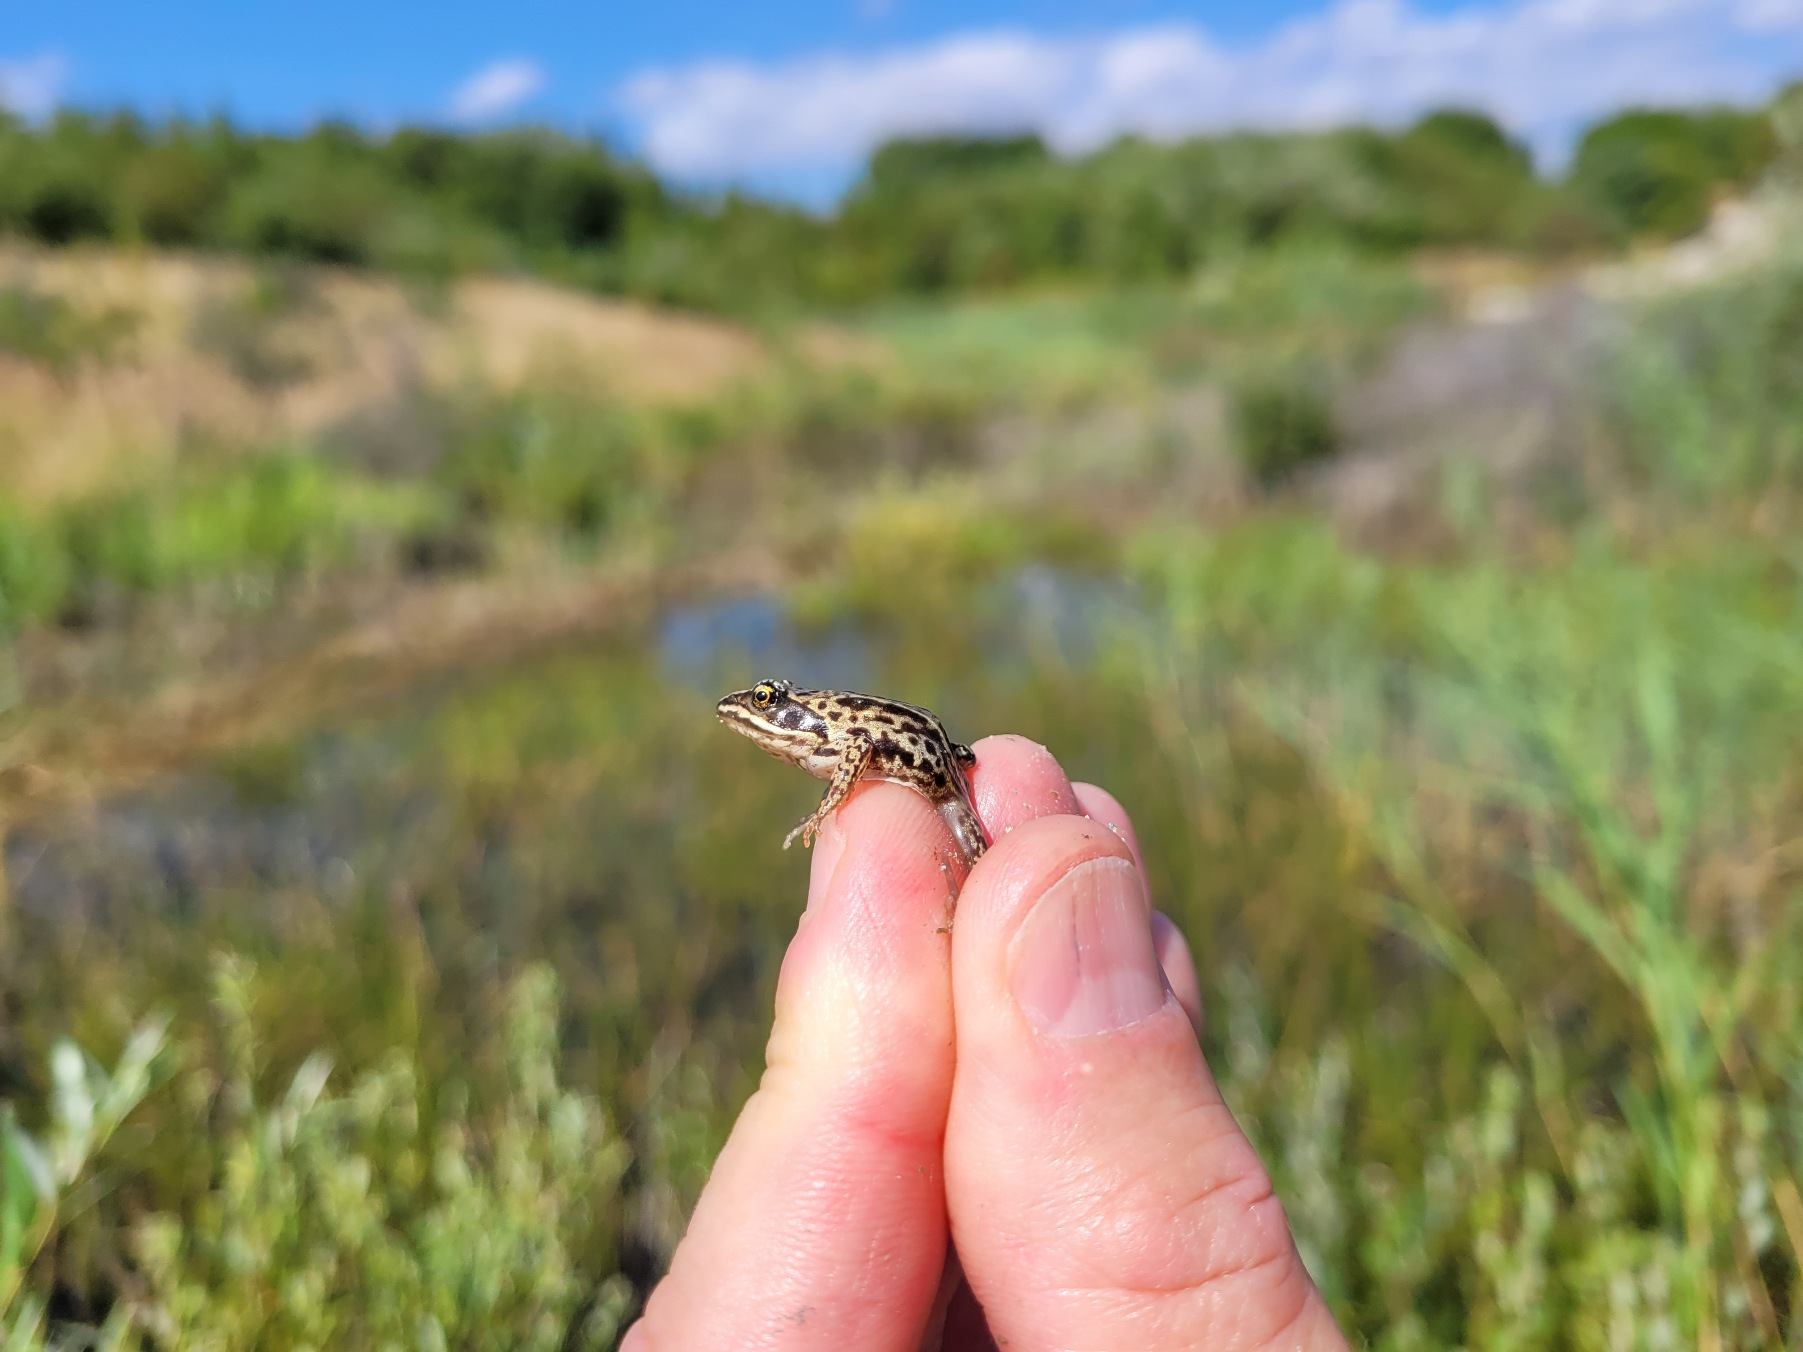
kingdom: Animalia
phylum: Chordata
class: Amphibia
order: Anura
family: Ranidae
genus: Rana
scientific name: Rana arvalis
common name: Spidssnudet frø
